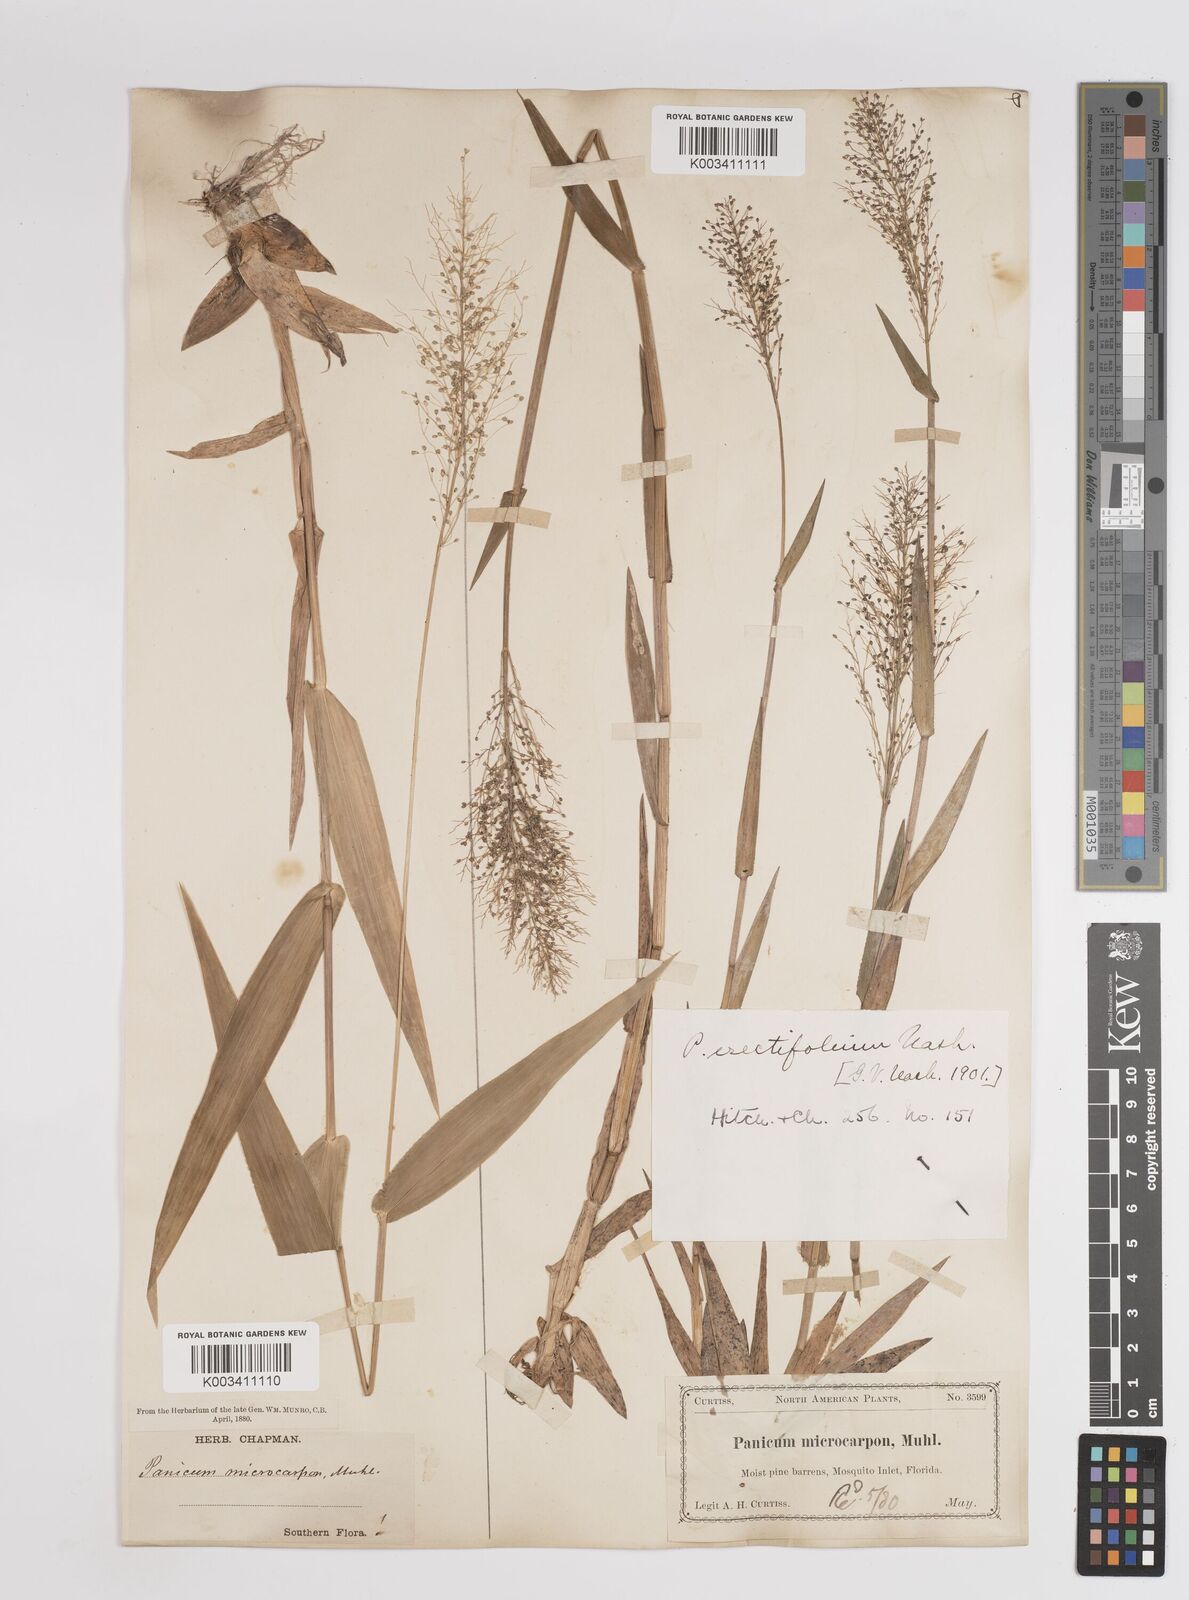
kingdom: Plantae
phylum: Tracheophyta
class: Liliopsida
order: Poales
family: Poaceae
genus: Dichanthelium
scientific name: Dichanthelium erectifolium
